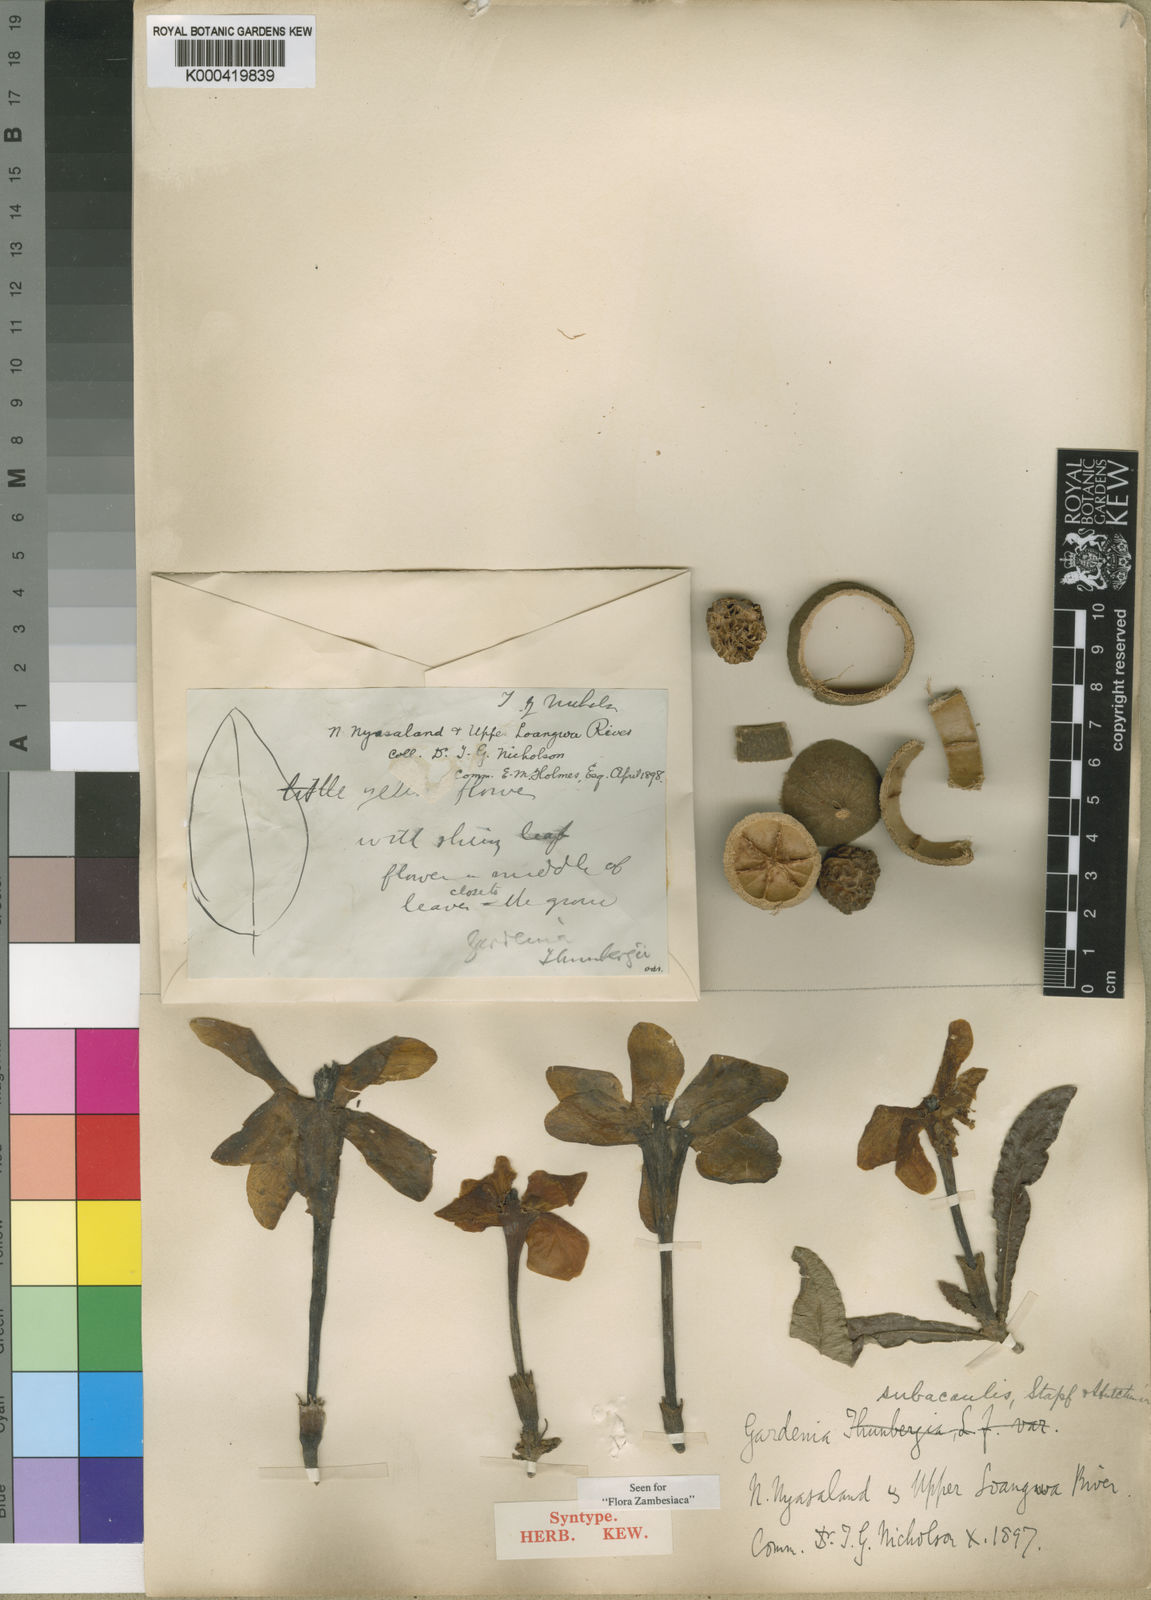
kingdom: Plantae
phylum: Tracheophyta
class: Magnoliopsida
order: Gentianales
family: Rubiaceae
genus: Gardenia
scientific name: Gardenia subacaulis
